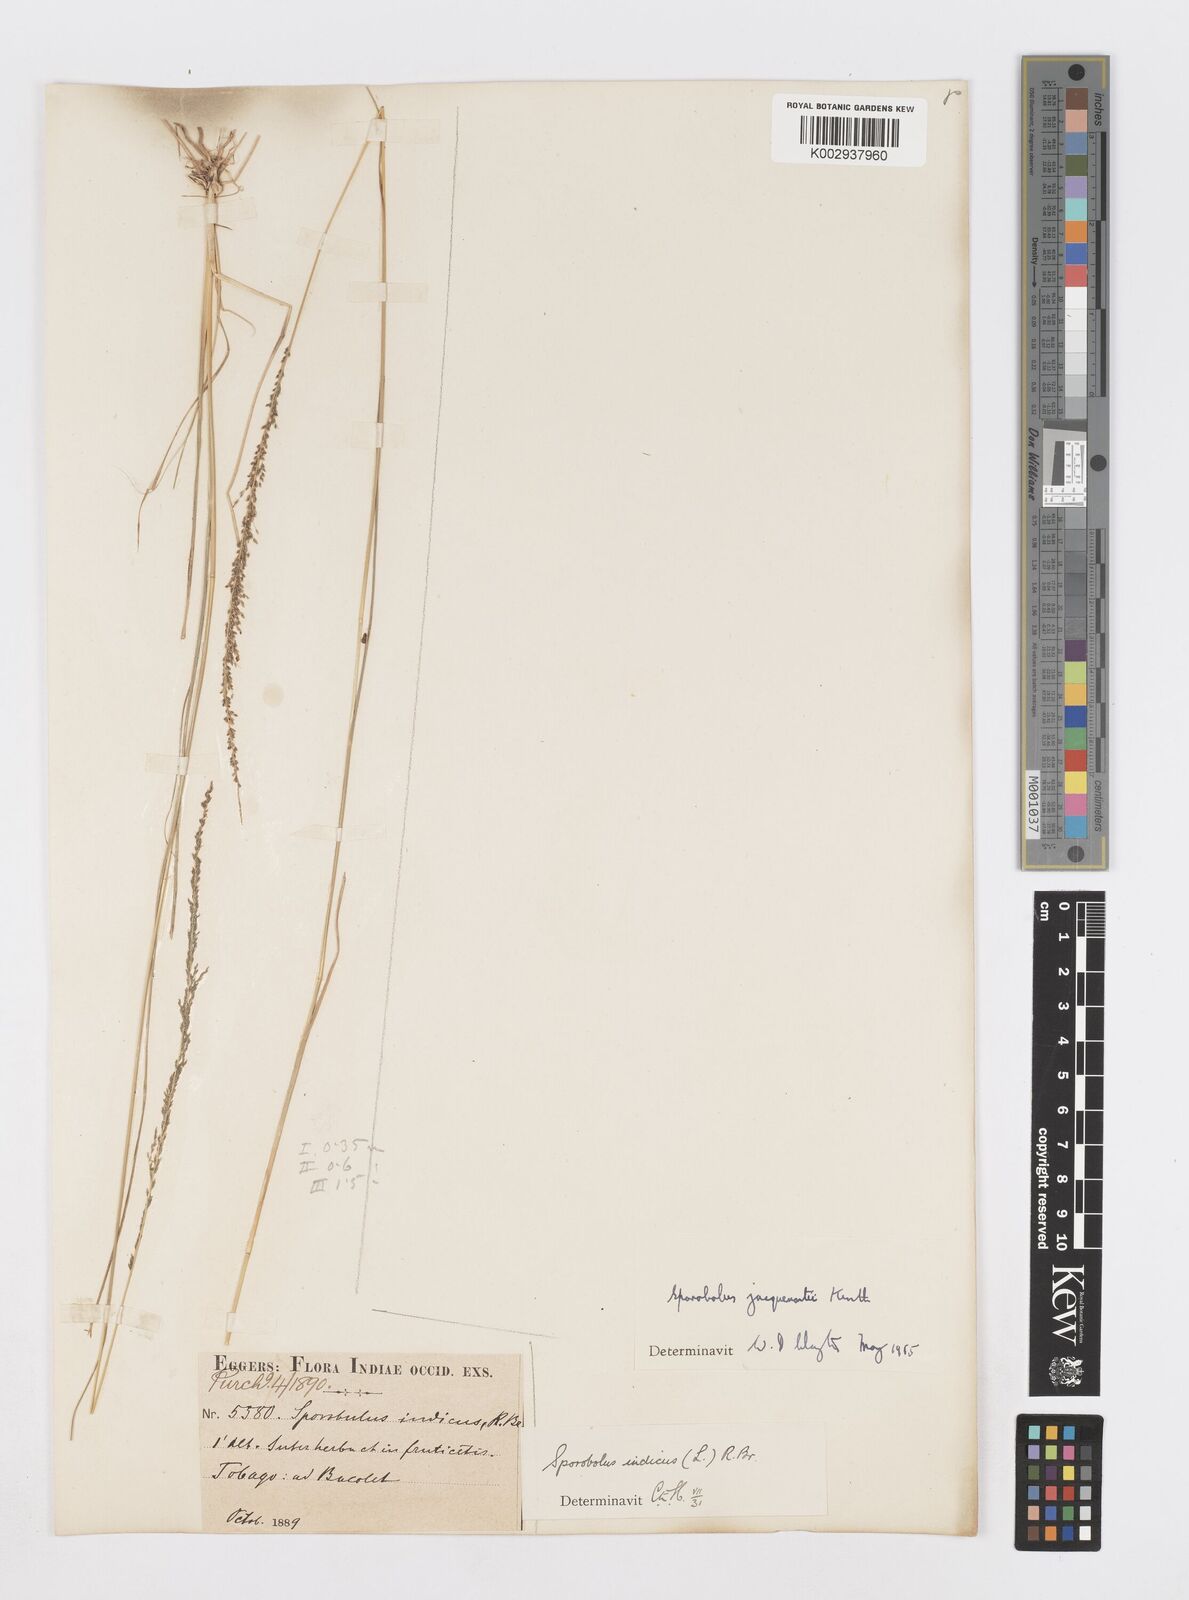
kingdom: Plantae
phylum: Tracheophyta
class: Liliopsida
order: Poales
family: Poaceae
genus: Sporobolus
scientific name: Sporobolus pyramidalis
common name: West indian dropseed
